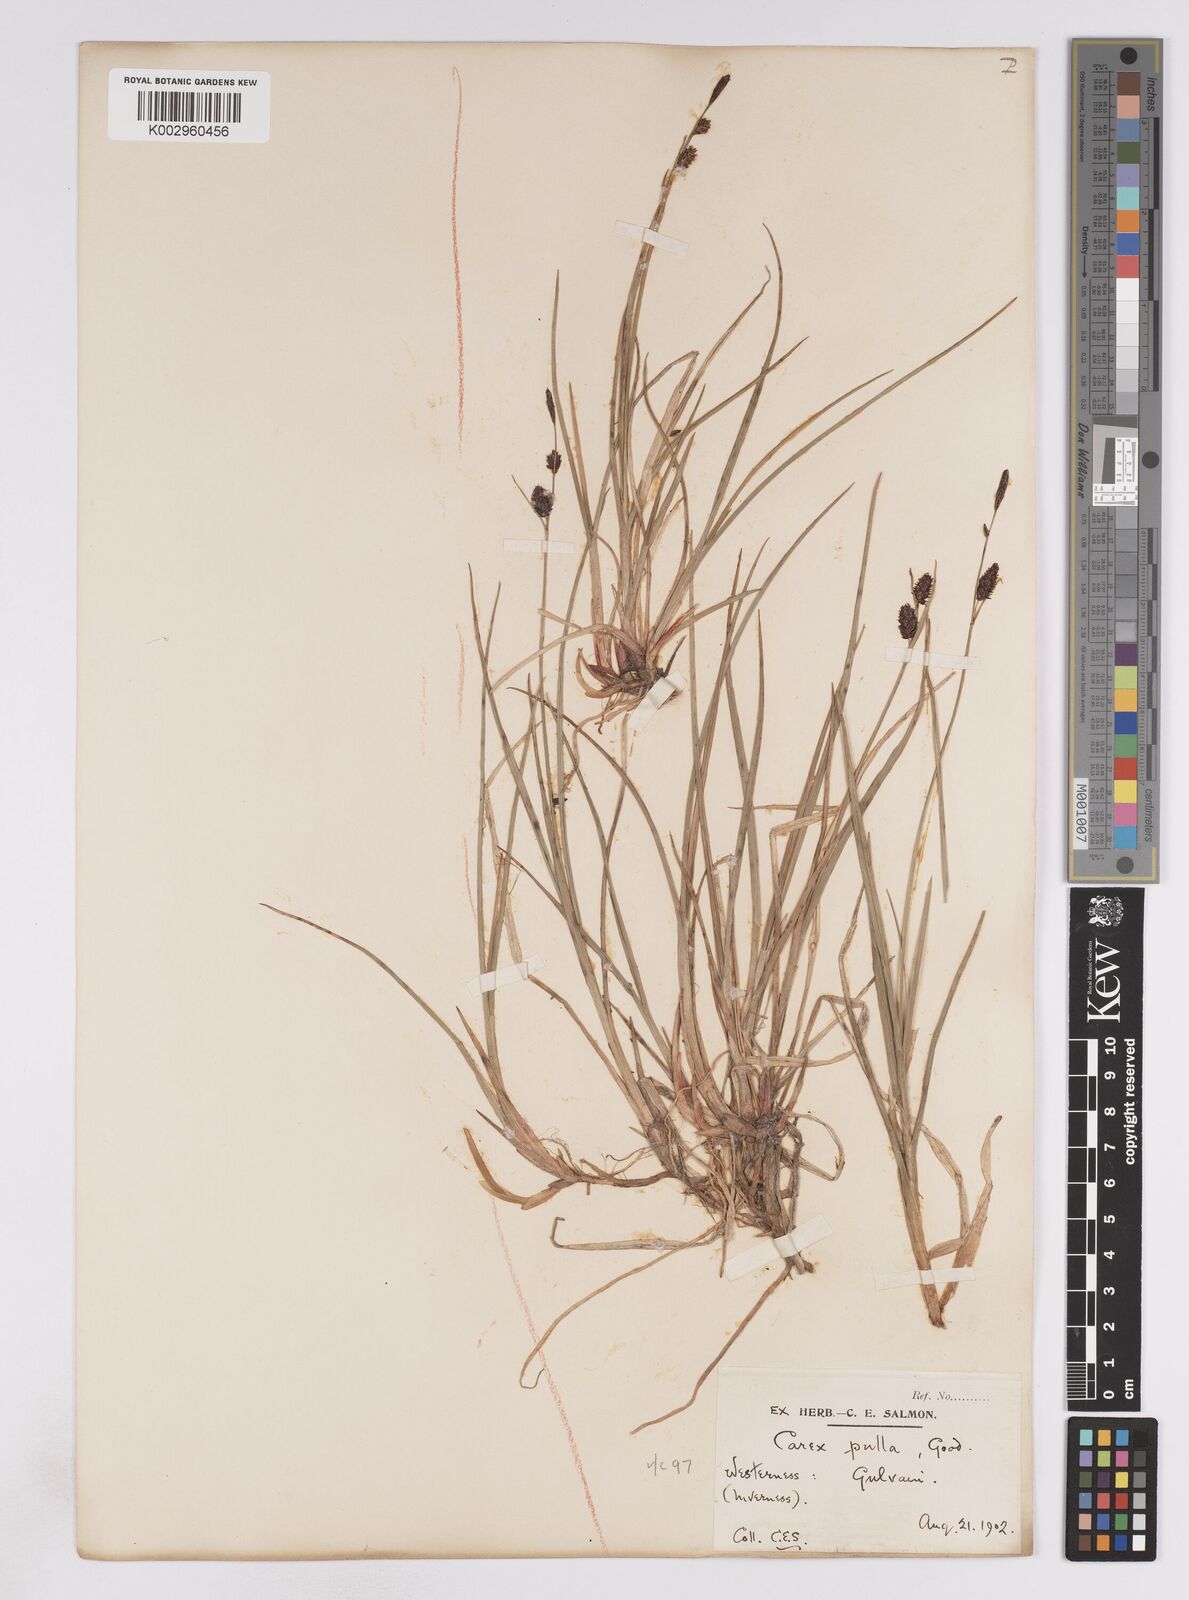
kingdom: Plantae
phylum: Tracheophyta
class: Liliopsida
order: Poales
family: Cyperaceae
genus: Carex
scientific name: Carex saxatilis
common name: Russet sedge
